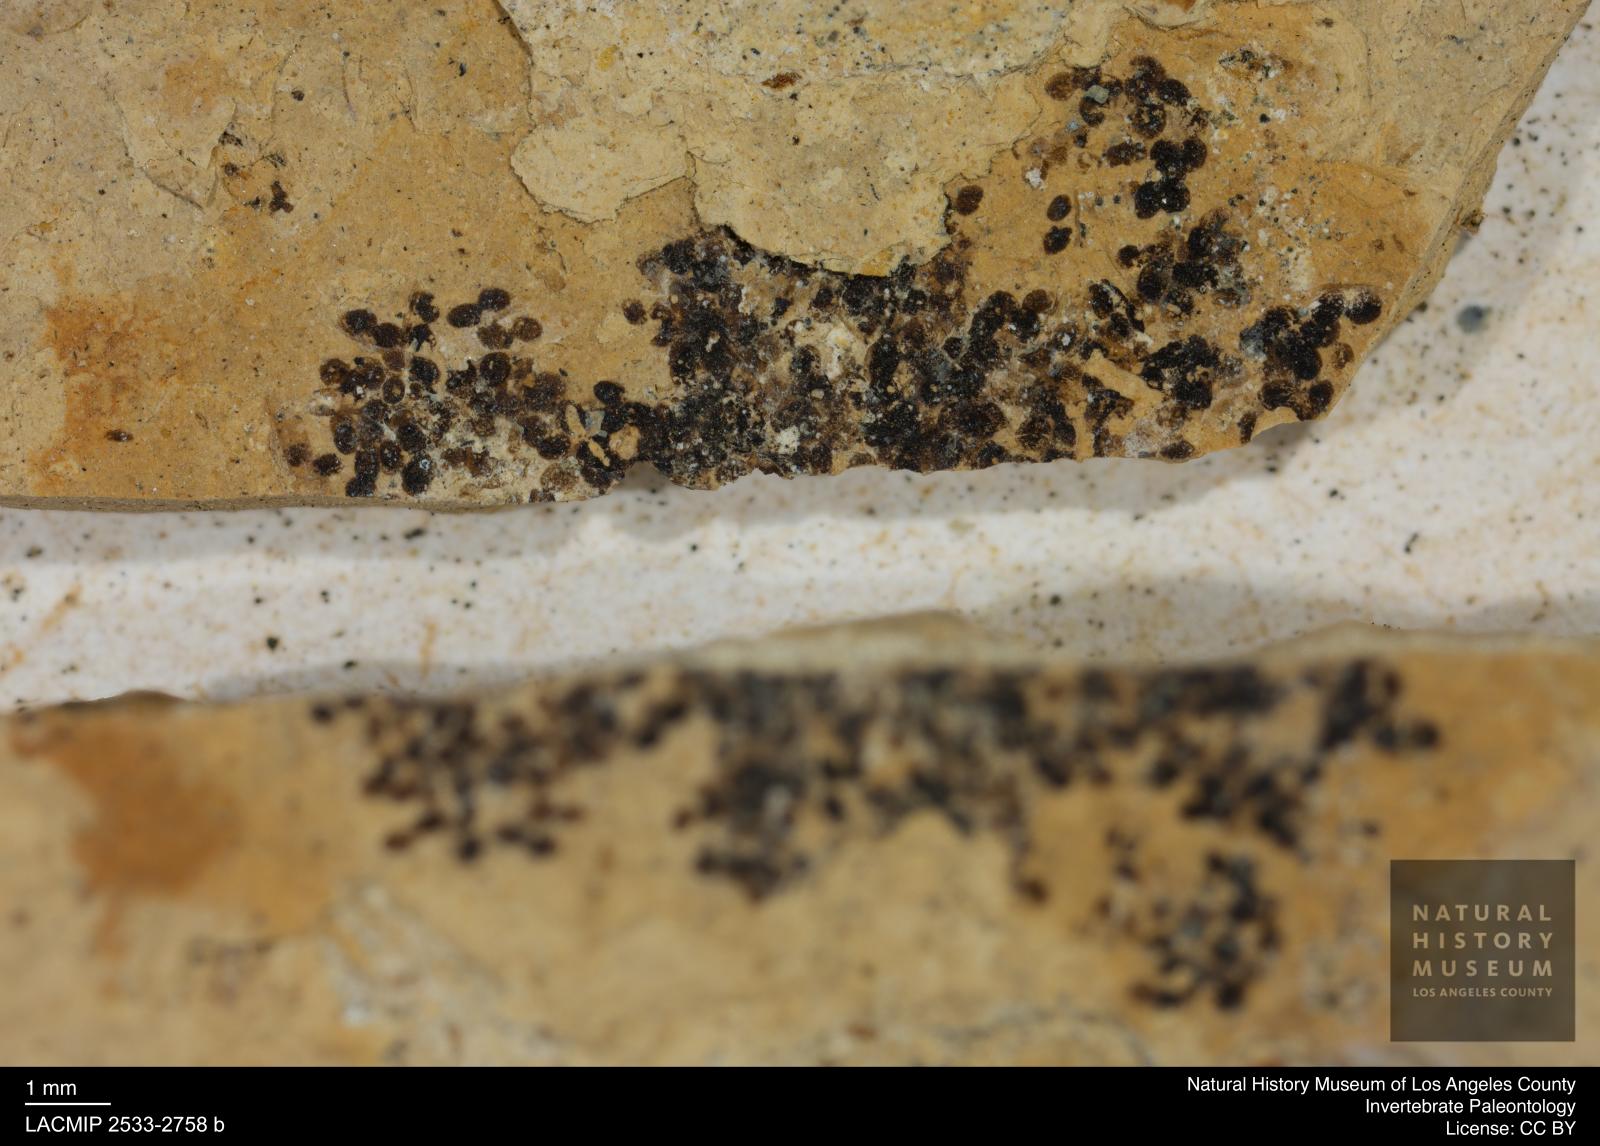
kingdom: Animalia
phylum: Arthropoda
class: Branchiopoda
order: Diplostraca
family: Daphniidae
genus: Daphnia
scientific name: Daphnia
